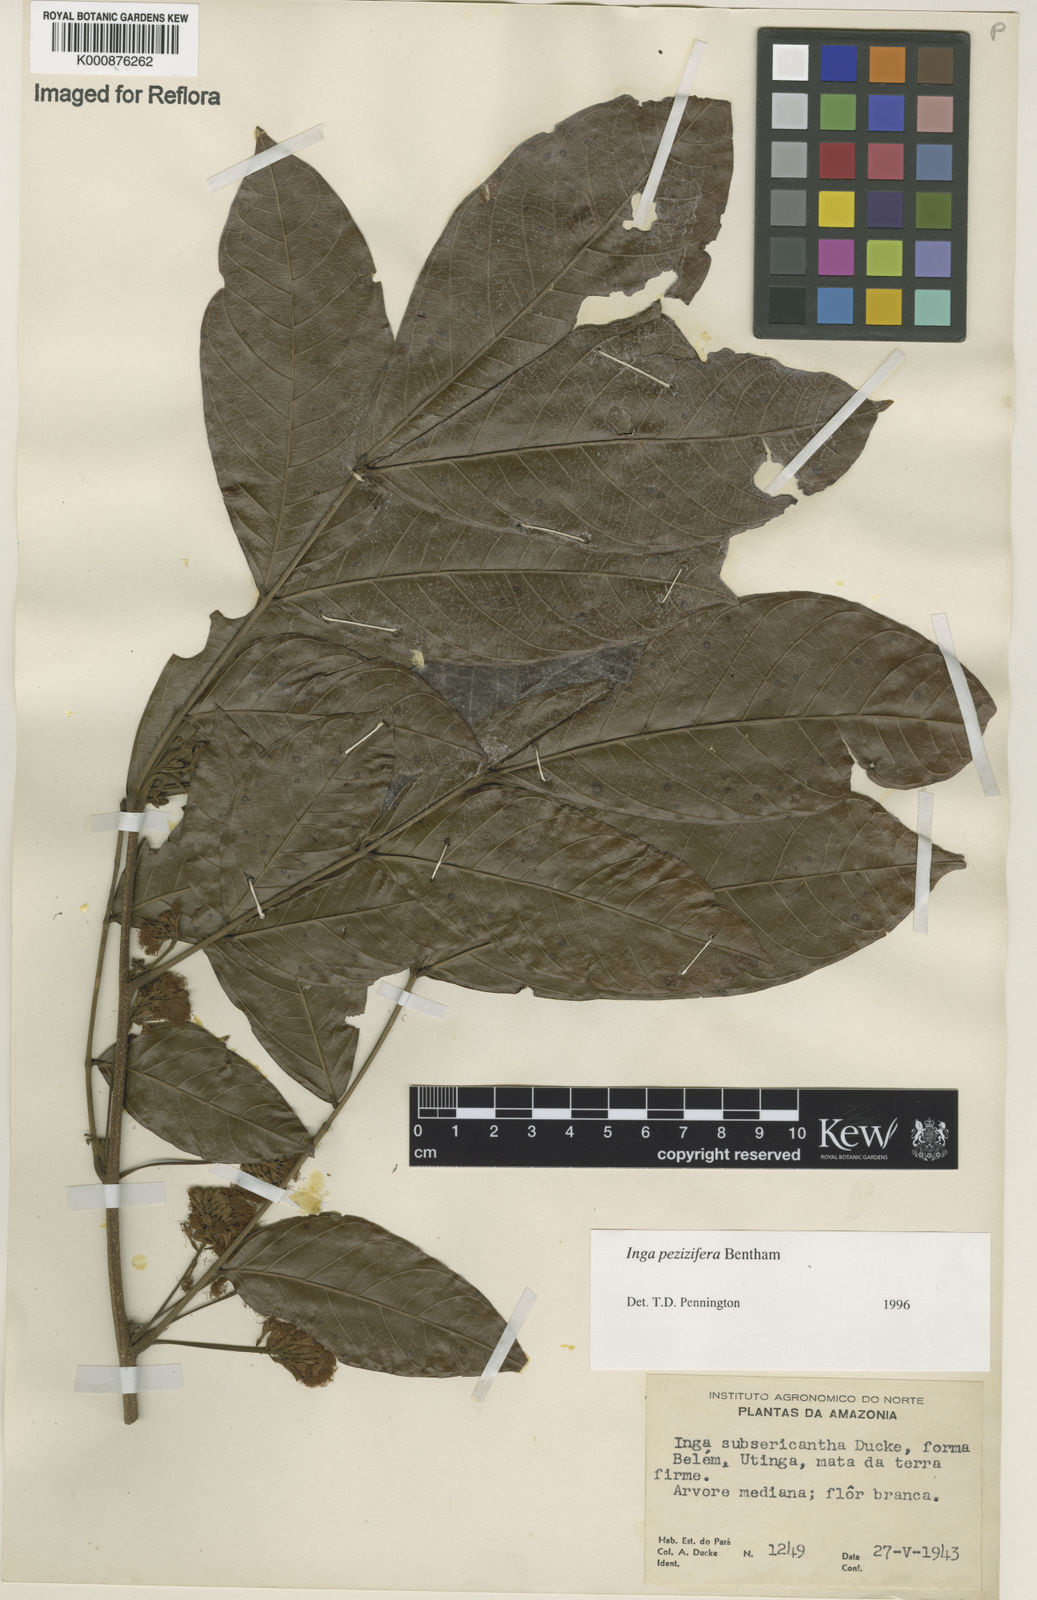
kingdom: Plantae
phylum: Tracheophyta
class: Magnoliopsida
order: Fabales
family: Fabaceae
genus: Inga
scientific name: Inga pezizifera
